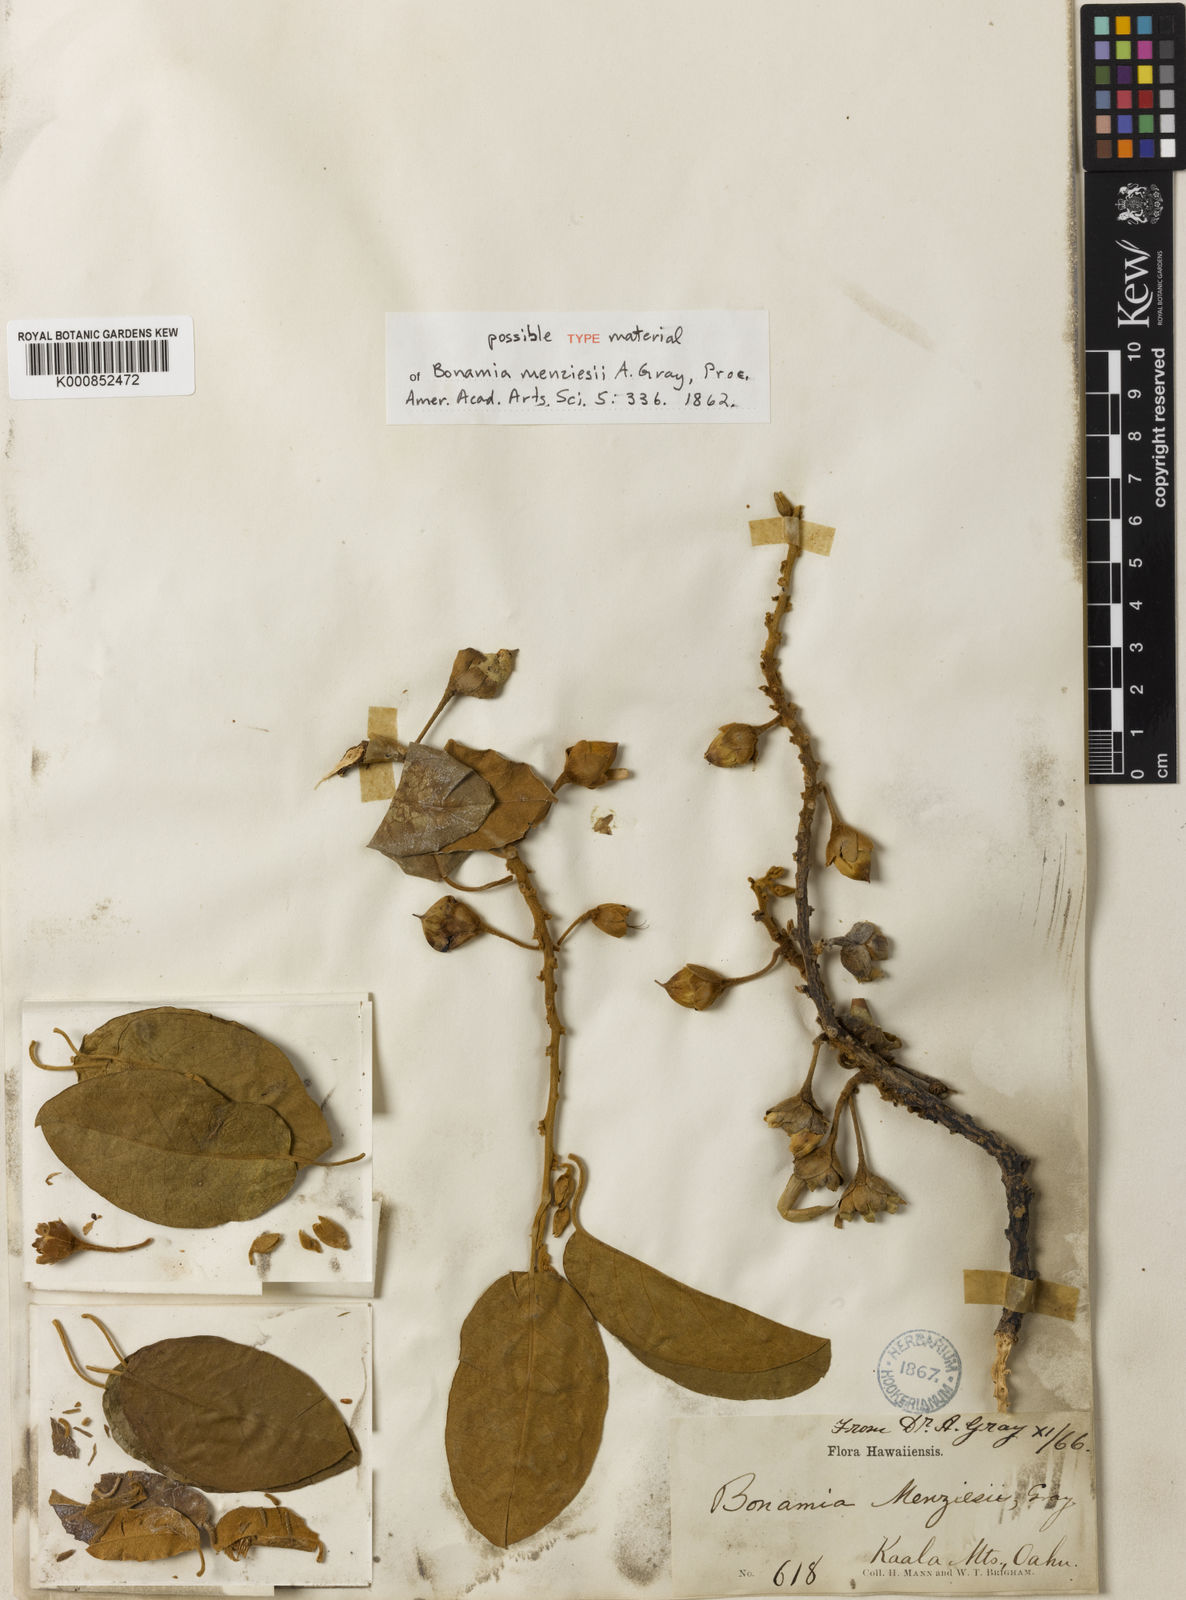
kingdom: Plantae
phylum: Tracheophyta
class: Magnoliopsida
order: Solanales
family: Convolvulaceae
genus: Bonamia
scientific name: Bonamia menziesii
